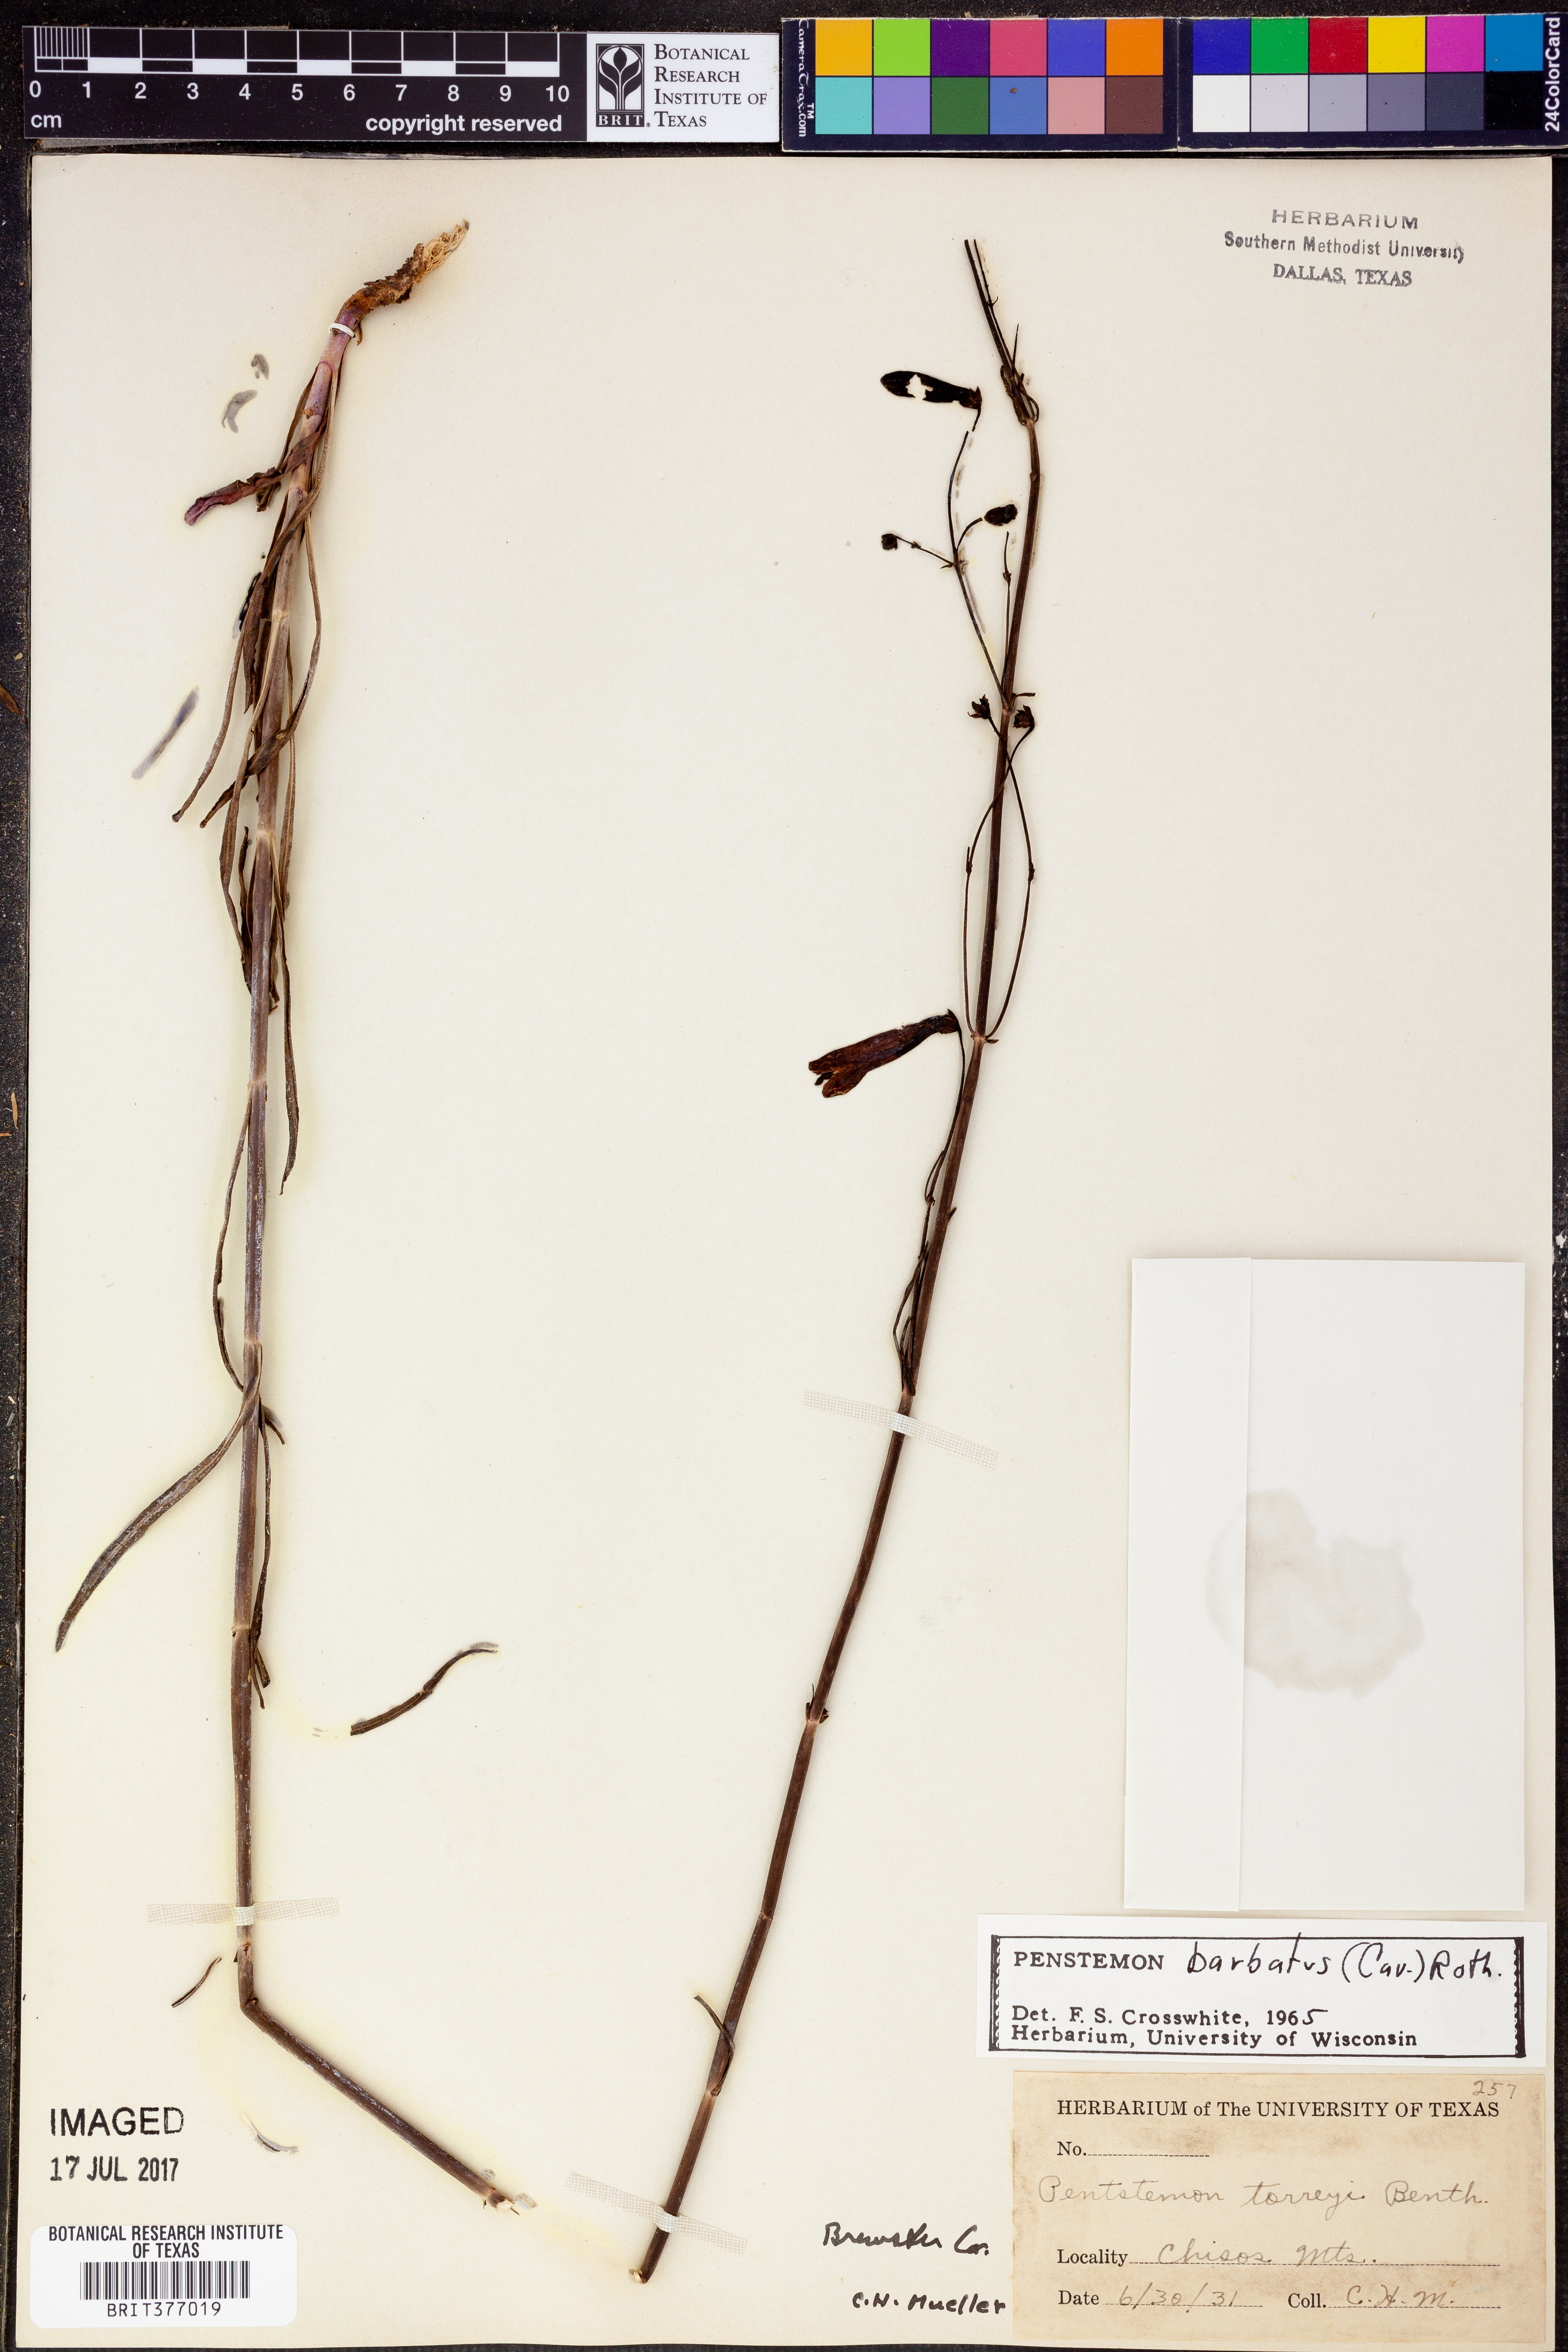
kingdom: Plantae
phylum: Tracheophyta
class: Magnoliopsida
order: Lamiales
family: Plantaginaceae
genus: Penstemon
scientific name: Penstemon barbatus
